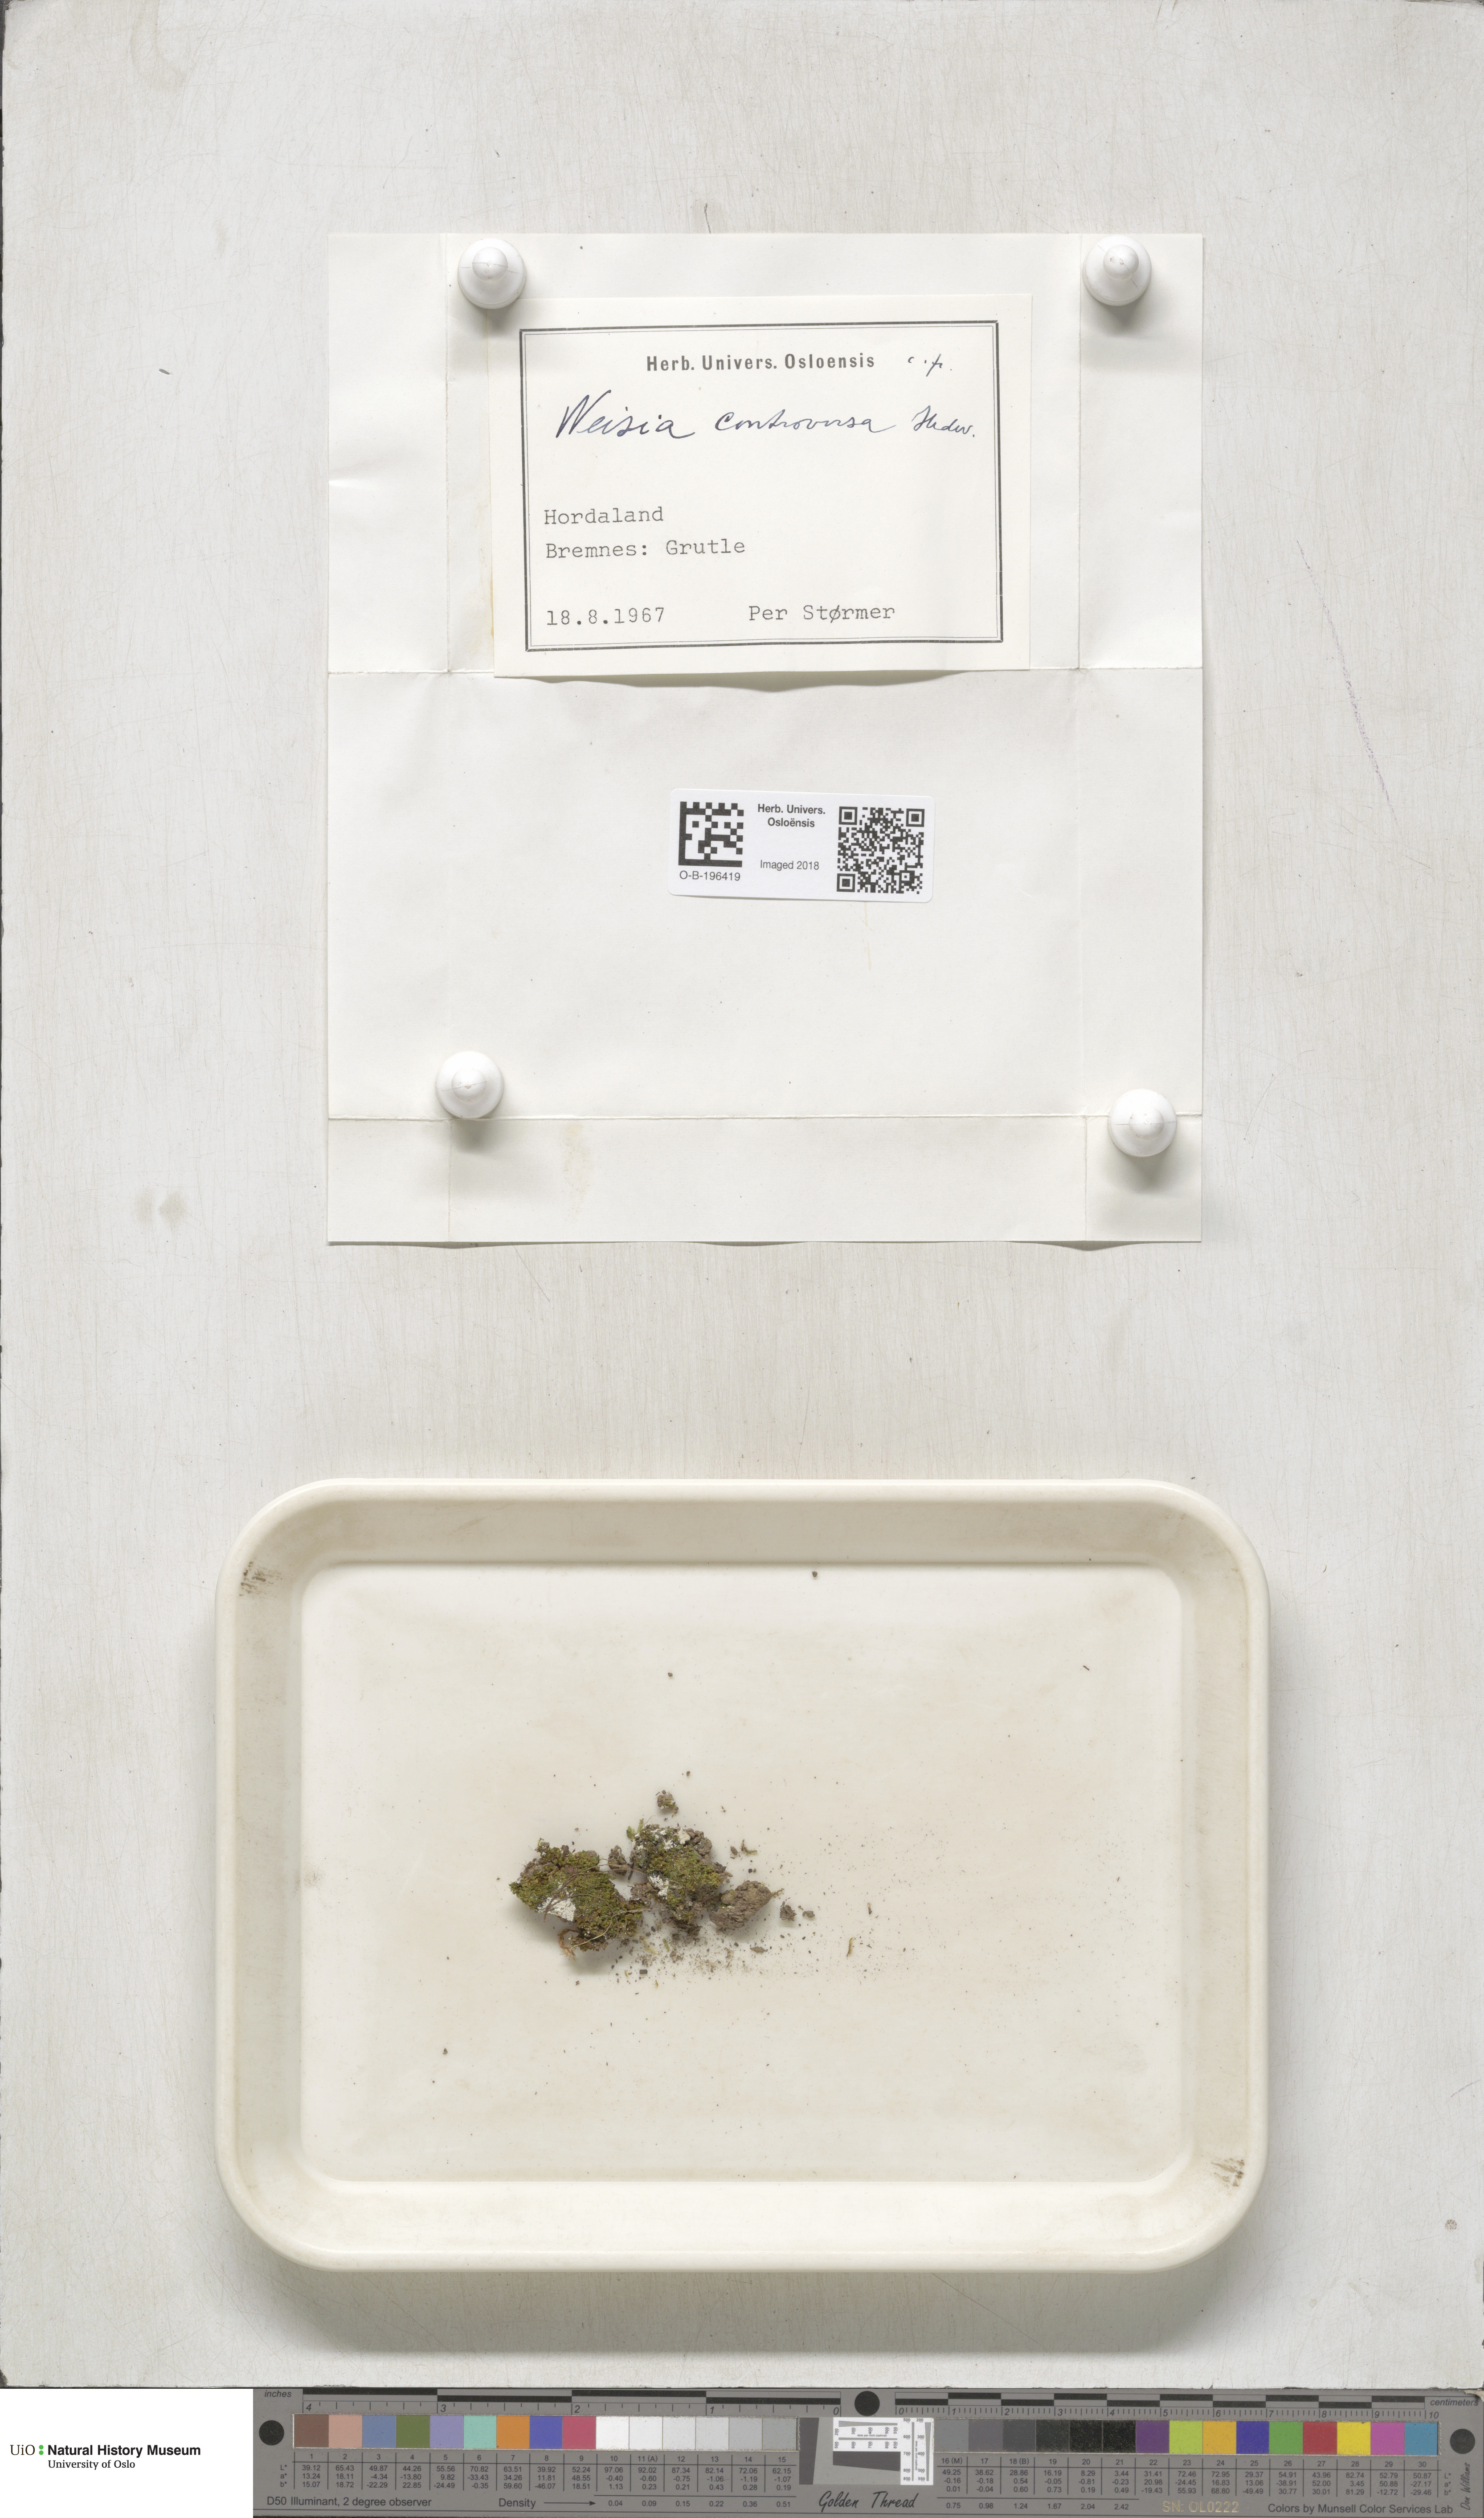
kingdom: Plantae
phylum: Bryophyta
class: Bryopsida
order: Pottiales
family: Pottiaceae
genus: Weissia
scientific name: Weissia controversa
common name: Green-tufted stubble moss
